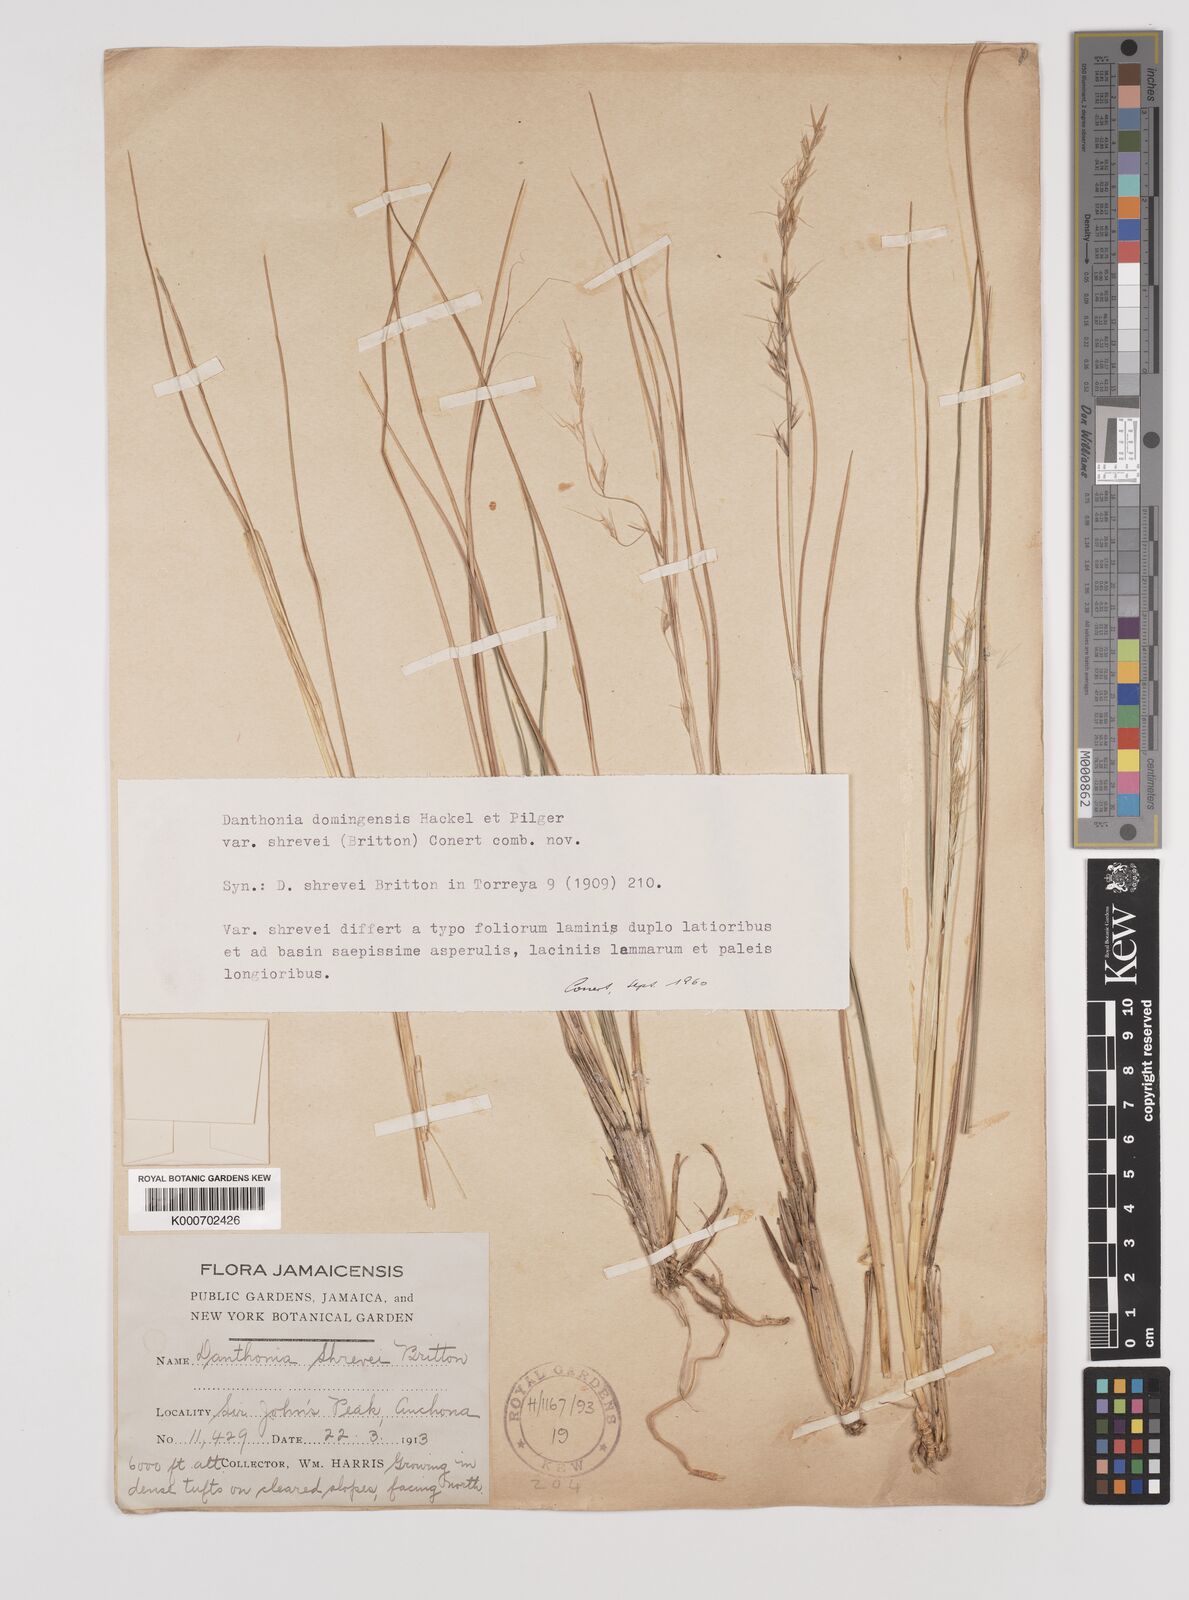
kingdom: Plantae
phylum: Tracheophyta
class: Liliopsida
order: Poales
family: Poaceae
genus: Danthonia
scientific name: Danthonia domingensis
